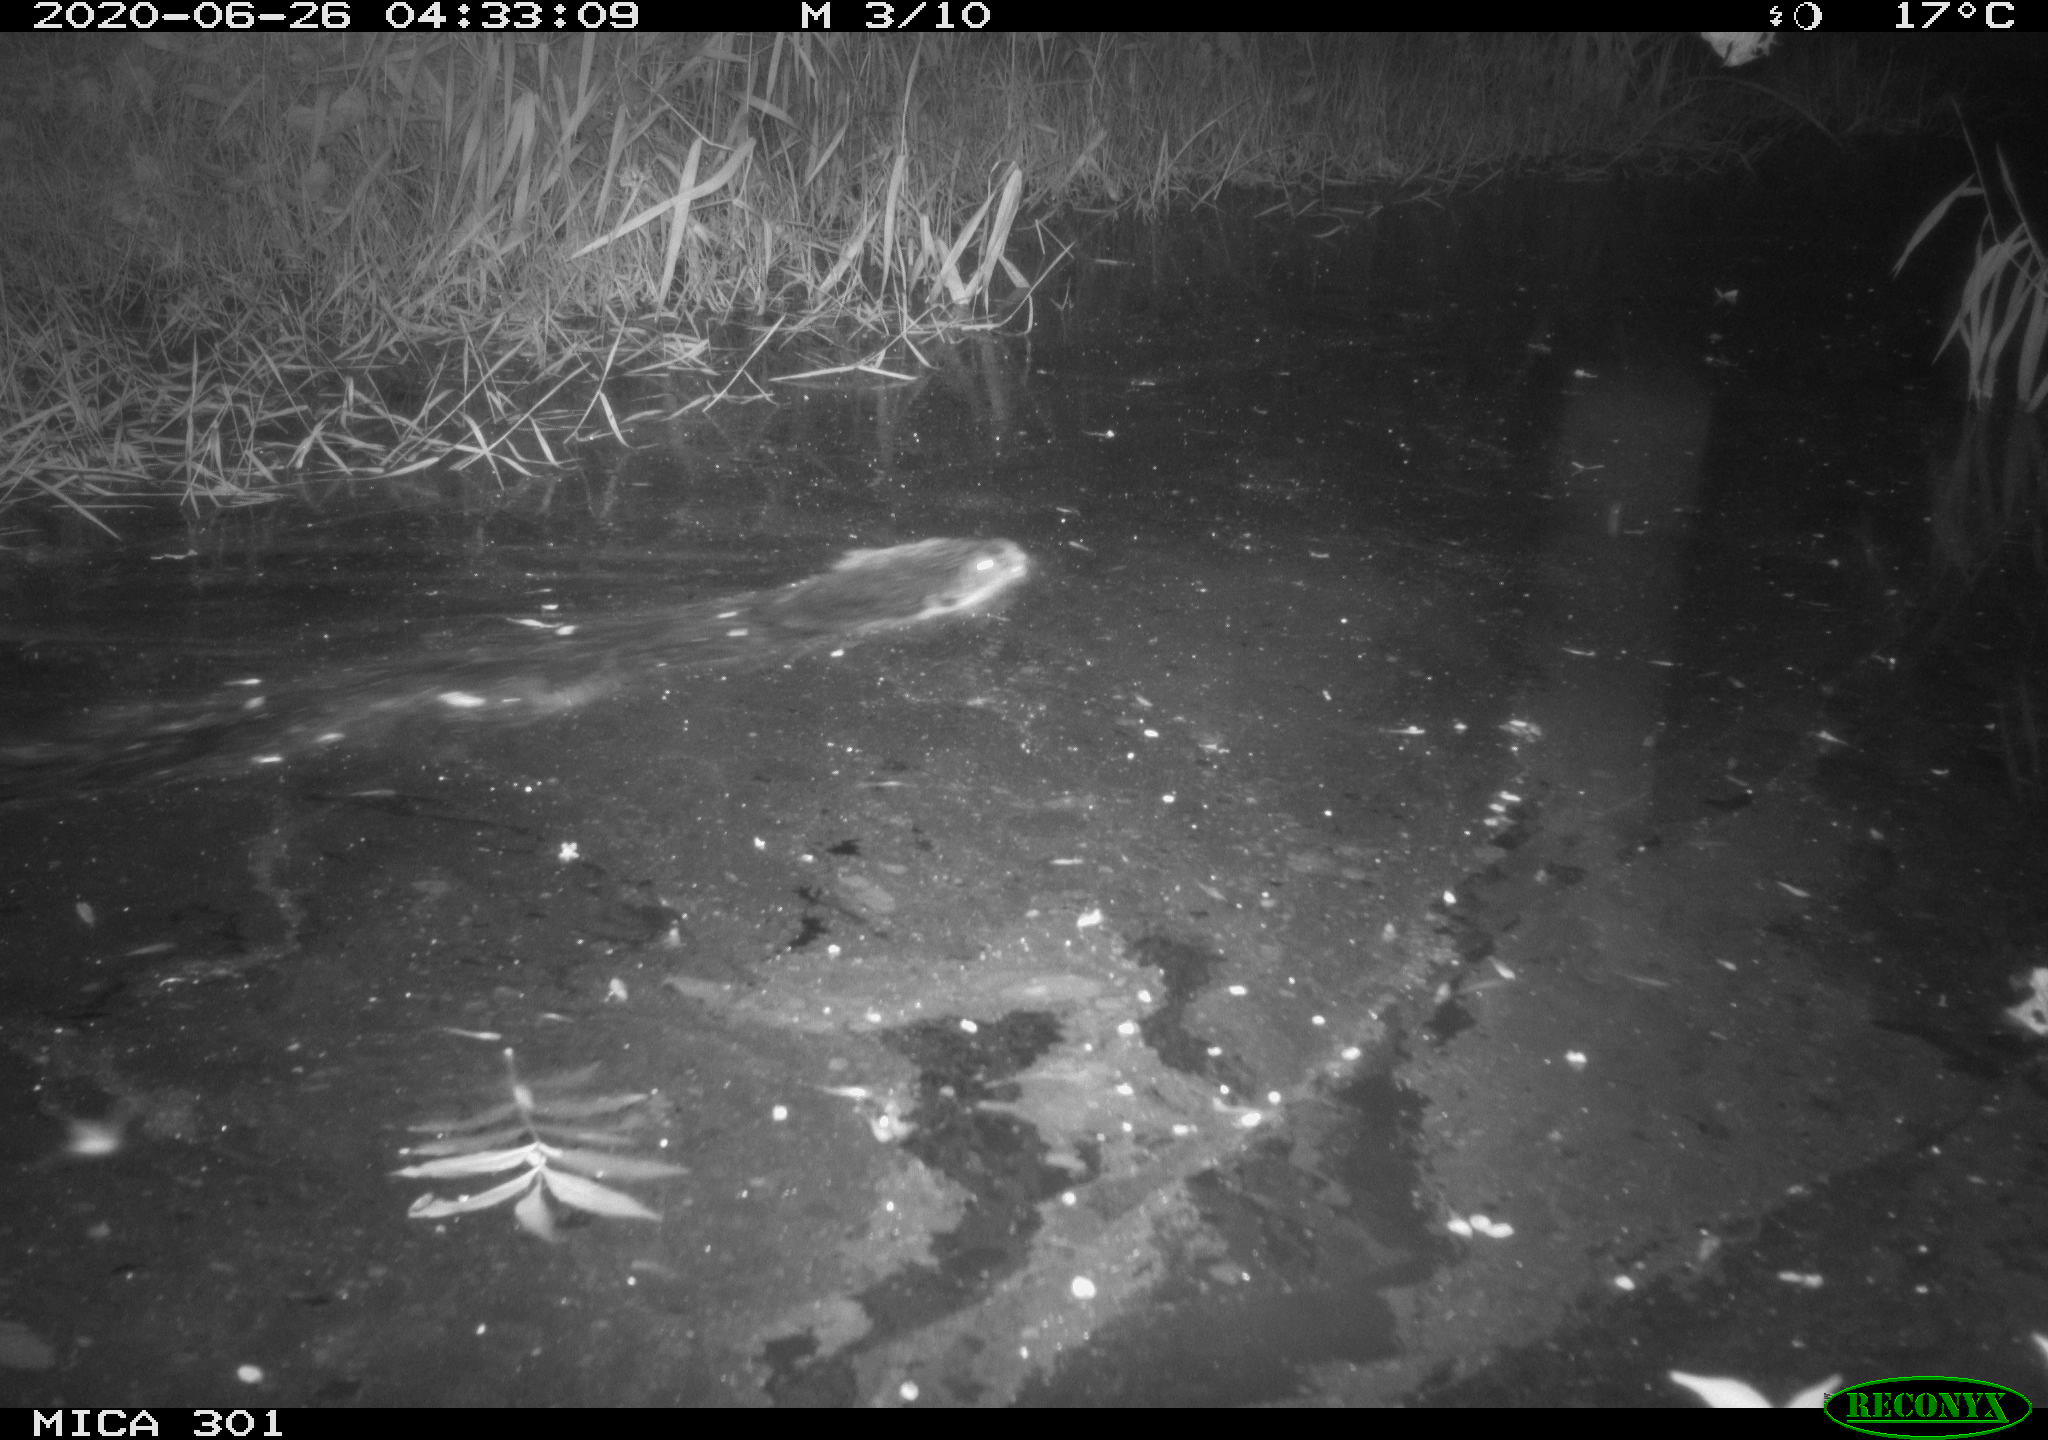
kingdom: Animalia
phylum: Chordata
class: Mammalia
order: Rodentia
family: Castoridae
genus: Castor
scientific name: Castor fiber
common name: Eurasian beaver
